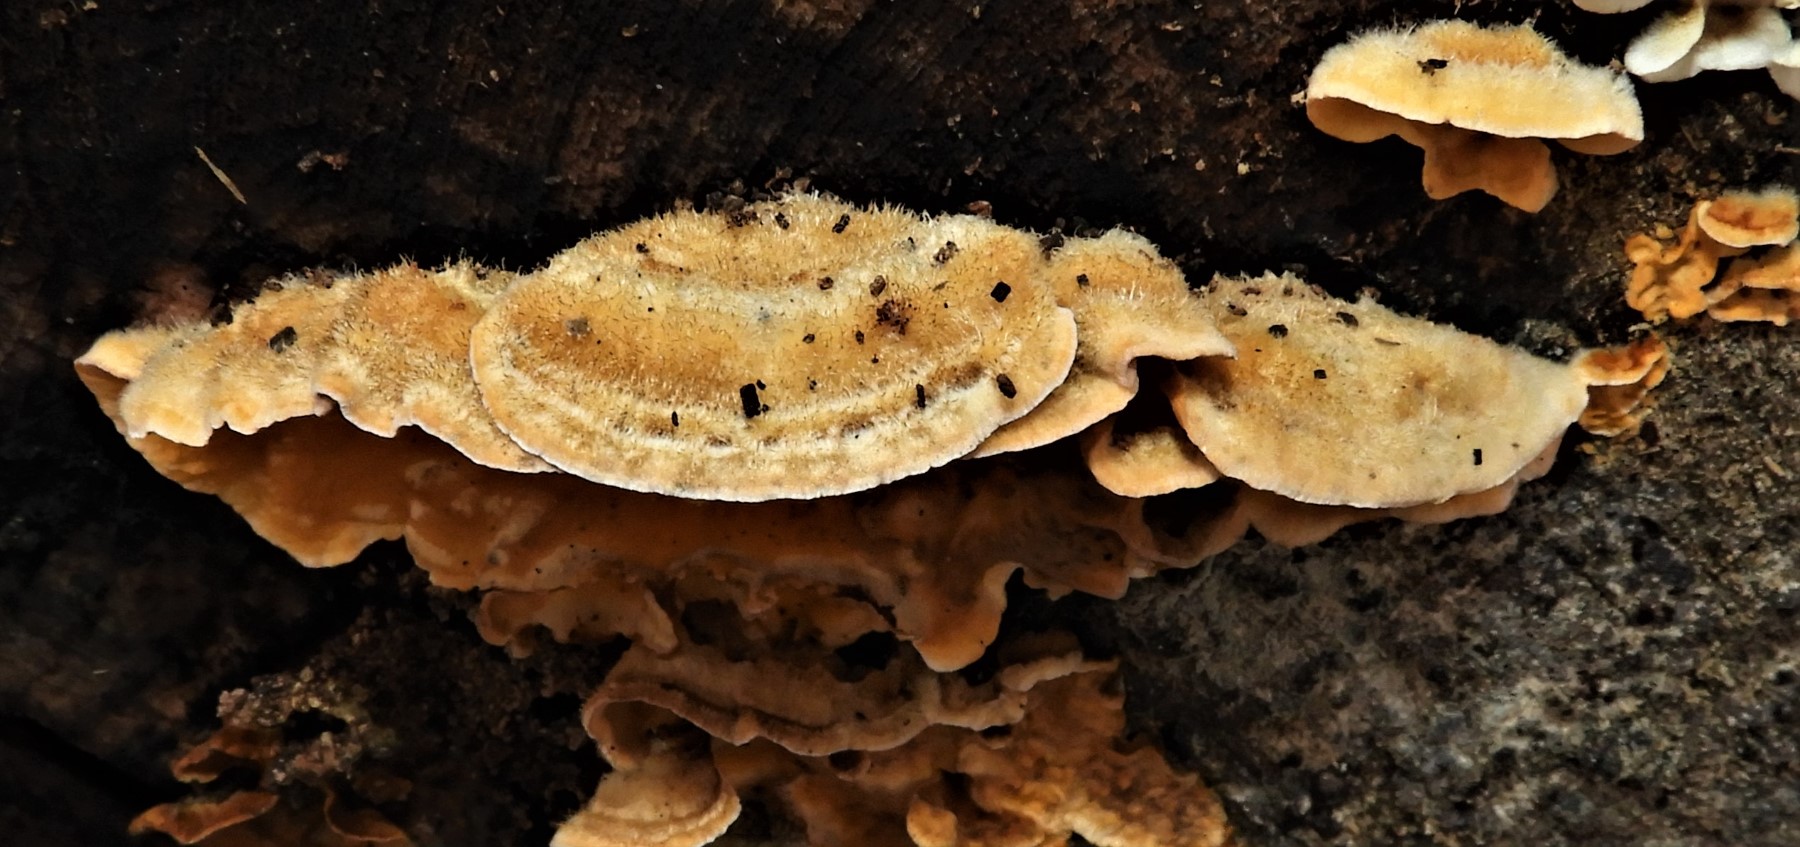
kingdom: Fungi
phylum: Basidiomycota
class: Agaricomycetes
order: Russulales
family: Stereaceae
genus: Stereum
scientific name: Stereum hirsutum
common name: håret lædersvamp
